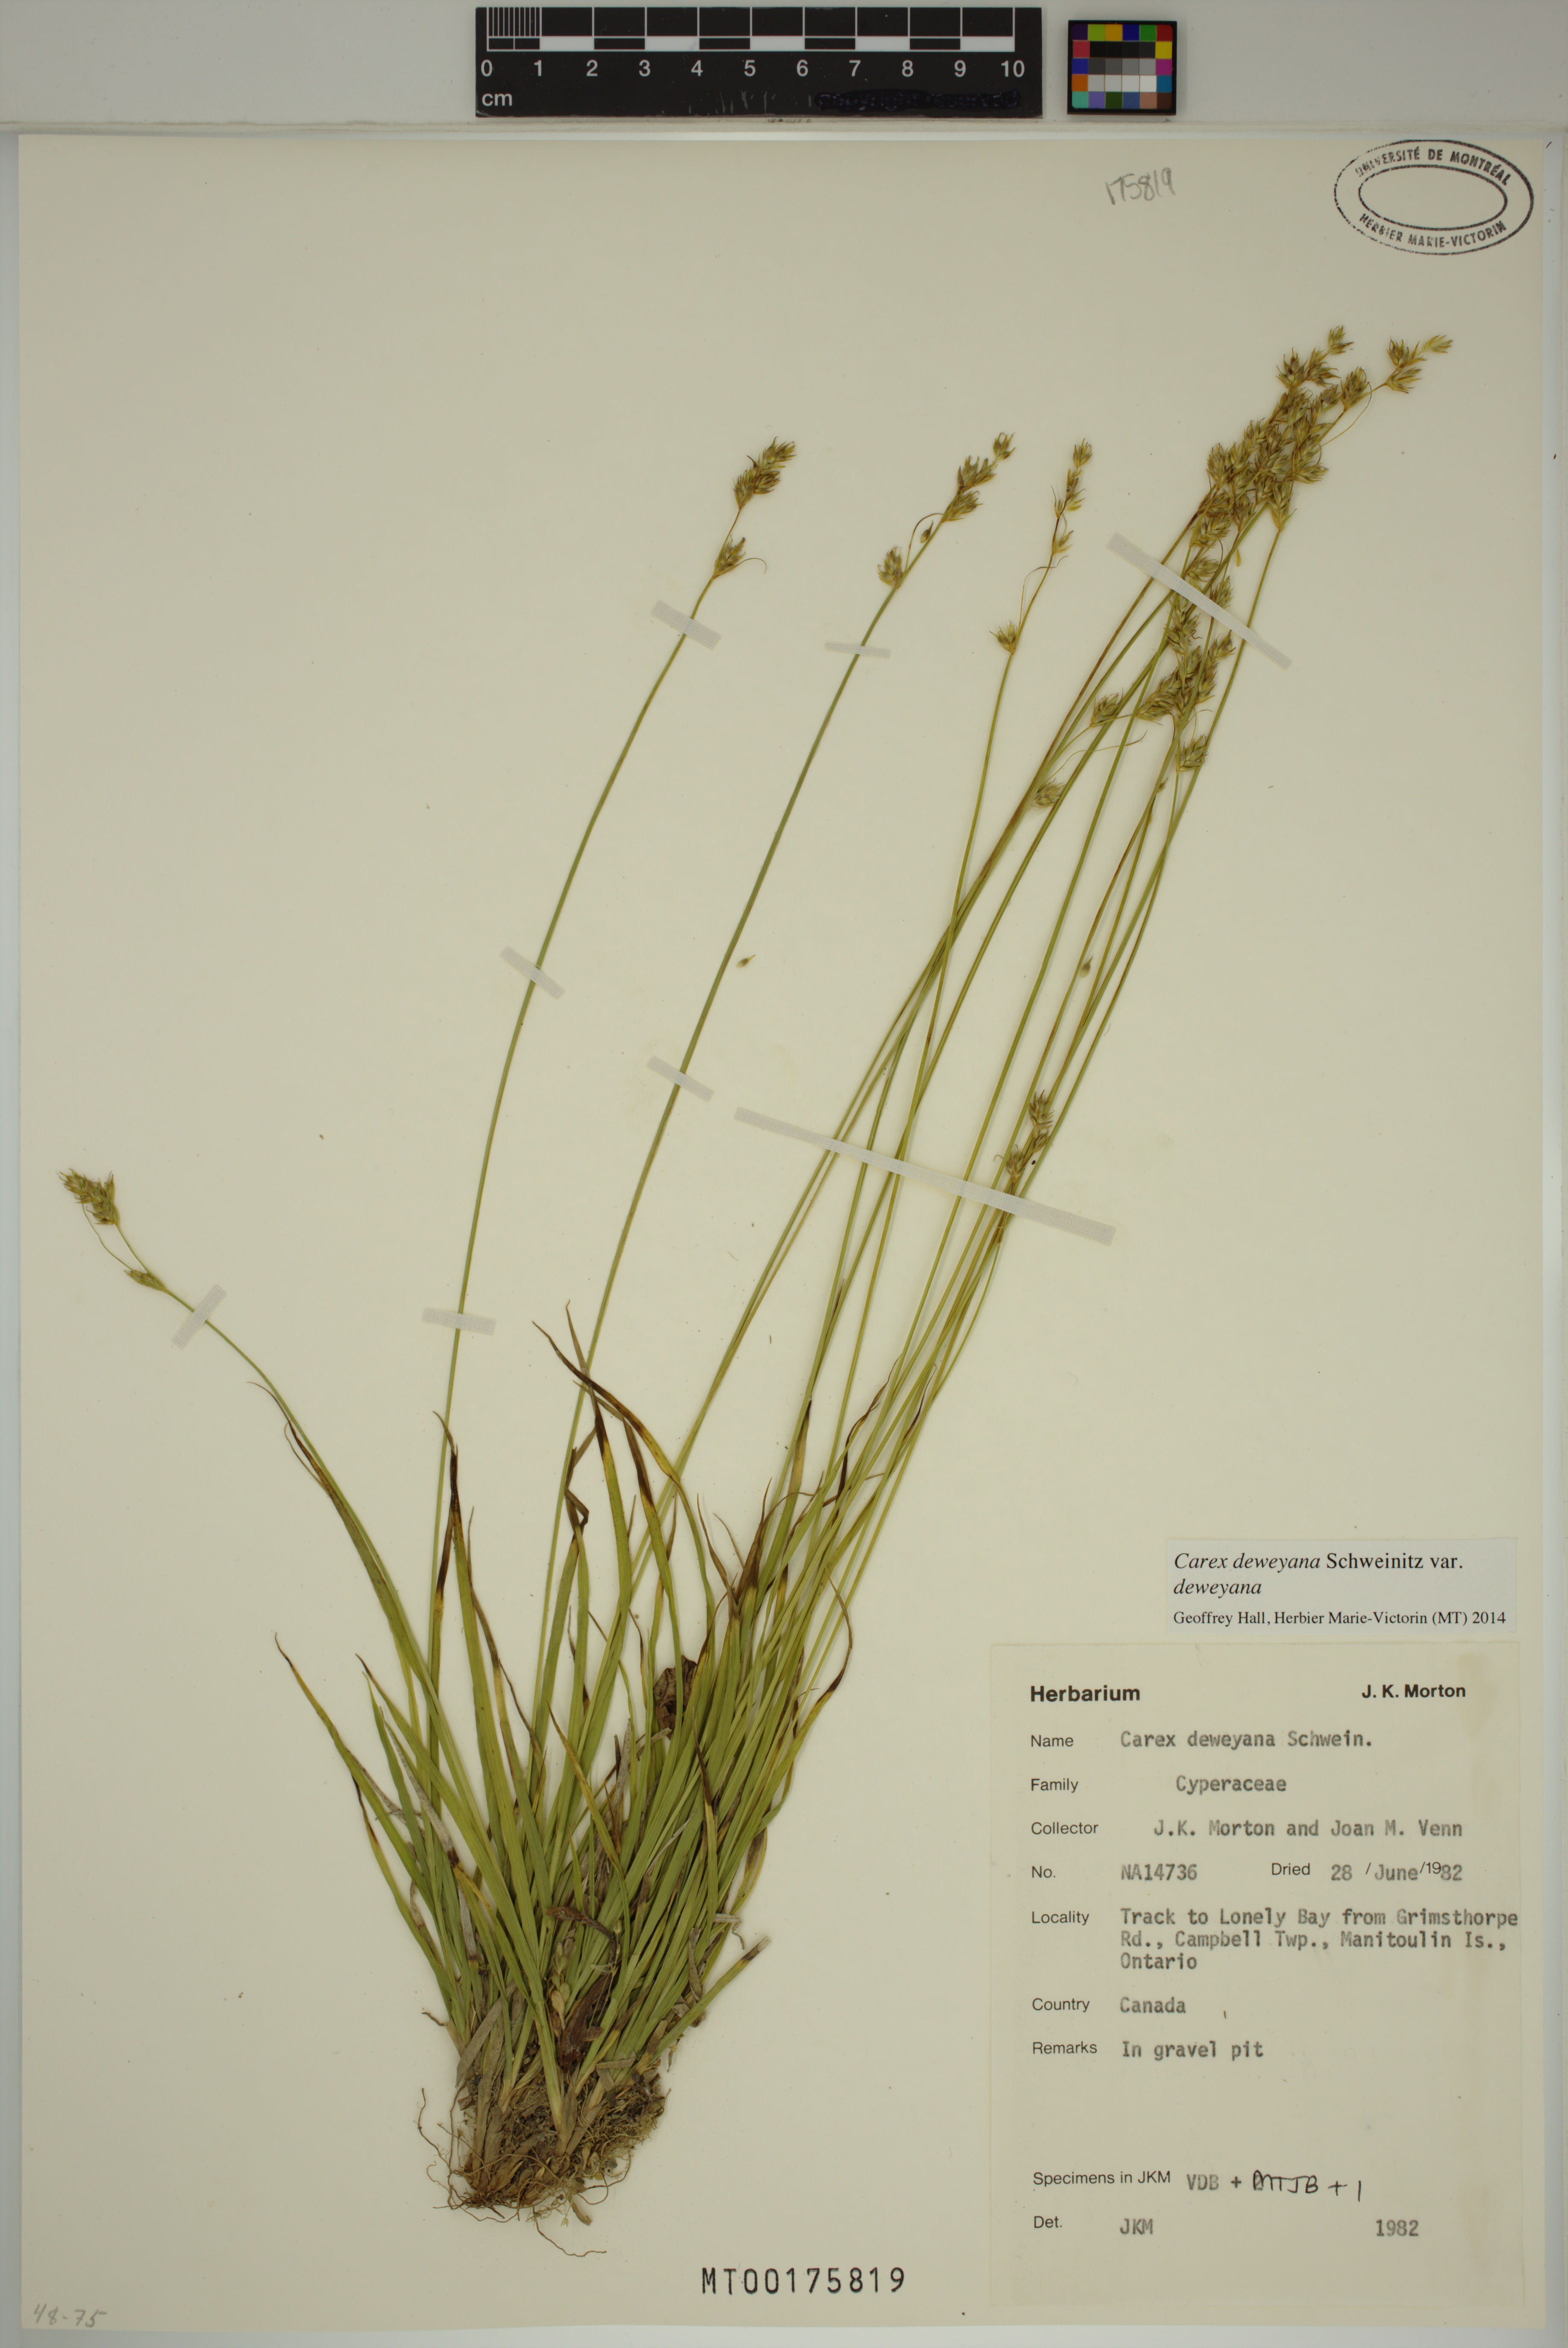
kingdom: Plantae
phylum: Tracheophyta
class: Liliopsida
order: Poales
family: Cyperaceae
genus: Carex
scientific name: Carex deweyana
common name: Dewey's sedge
